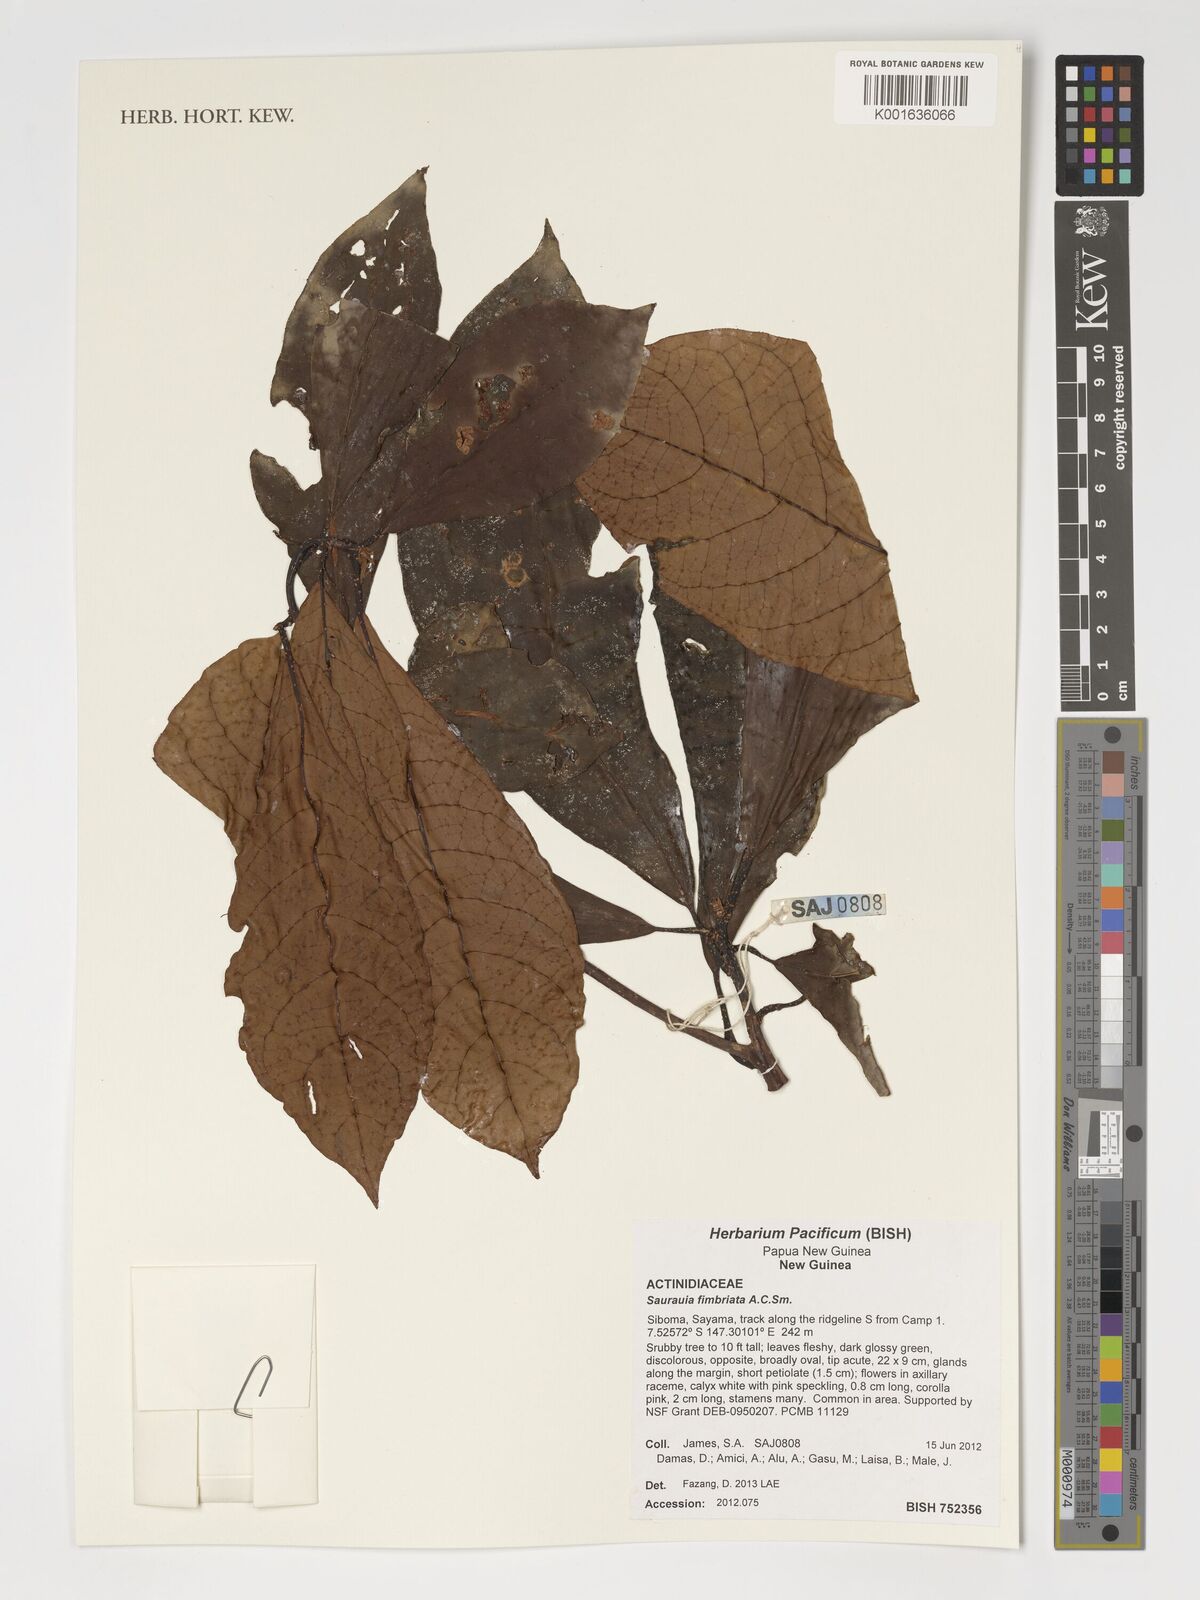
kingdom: Plantae
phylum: Tracheophyta
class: Magnoliopsida
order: Ericales
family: Actinidiaceae
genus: Saurauia
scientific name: Saurauia fimbriata
